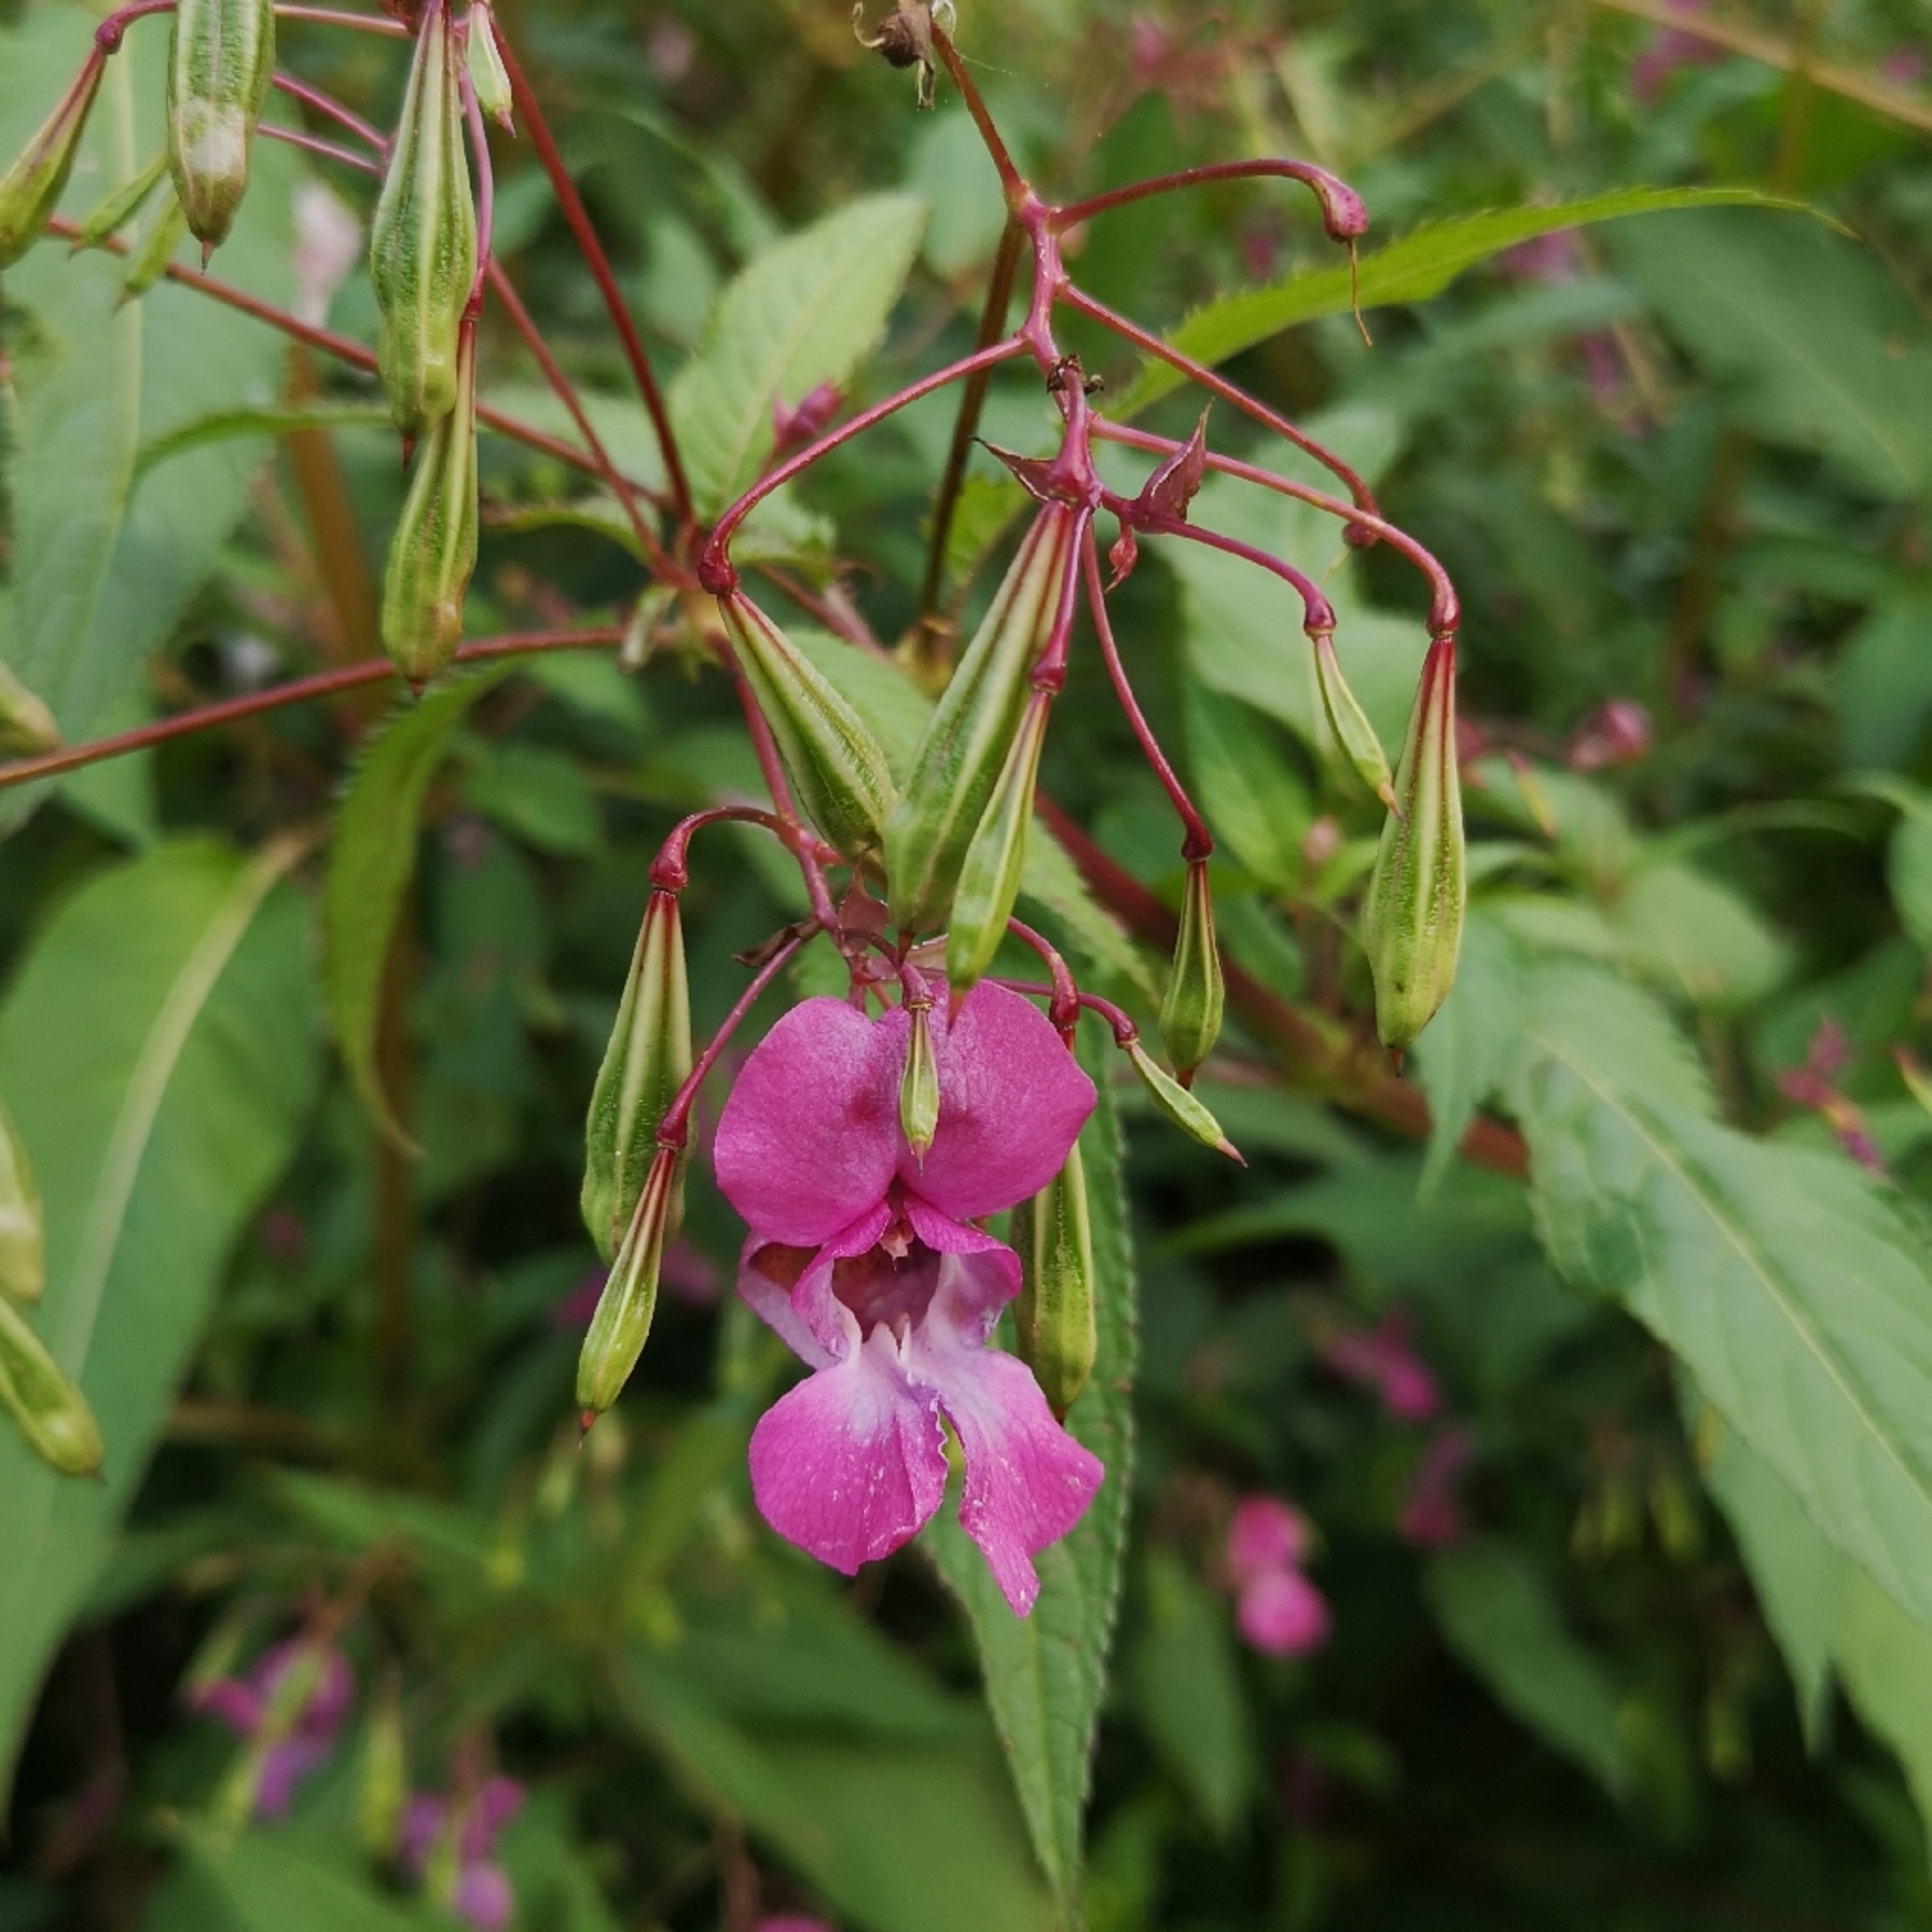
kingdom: Plantae
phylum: Tracheophyta
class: Magnoliopsida
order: Ericales
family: Balsaminaceae
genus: Impatiens
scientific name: Impatiens glandulifera
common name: Kæmpe-balsamin
